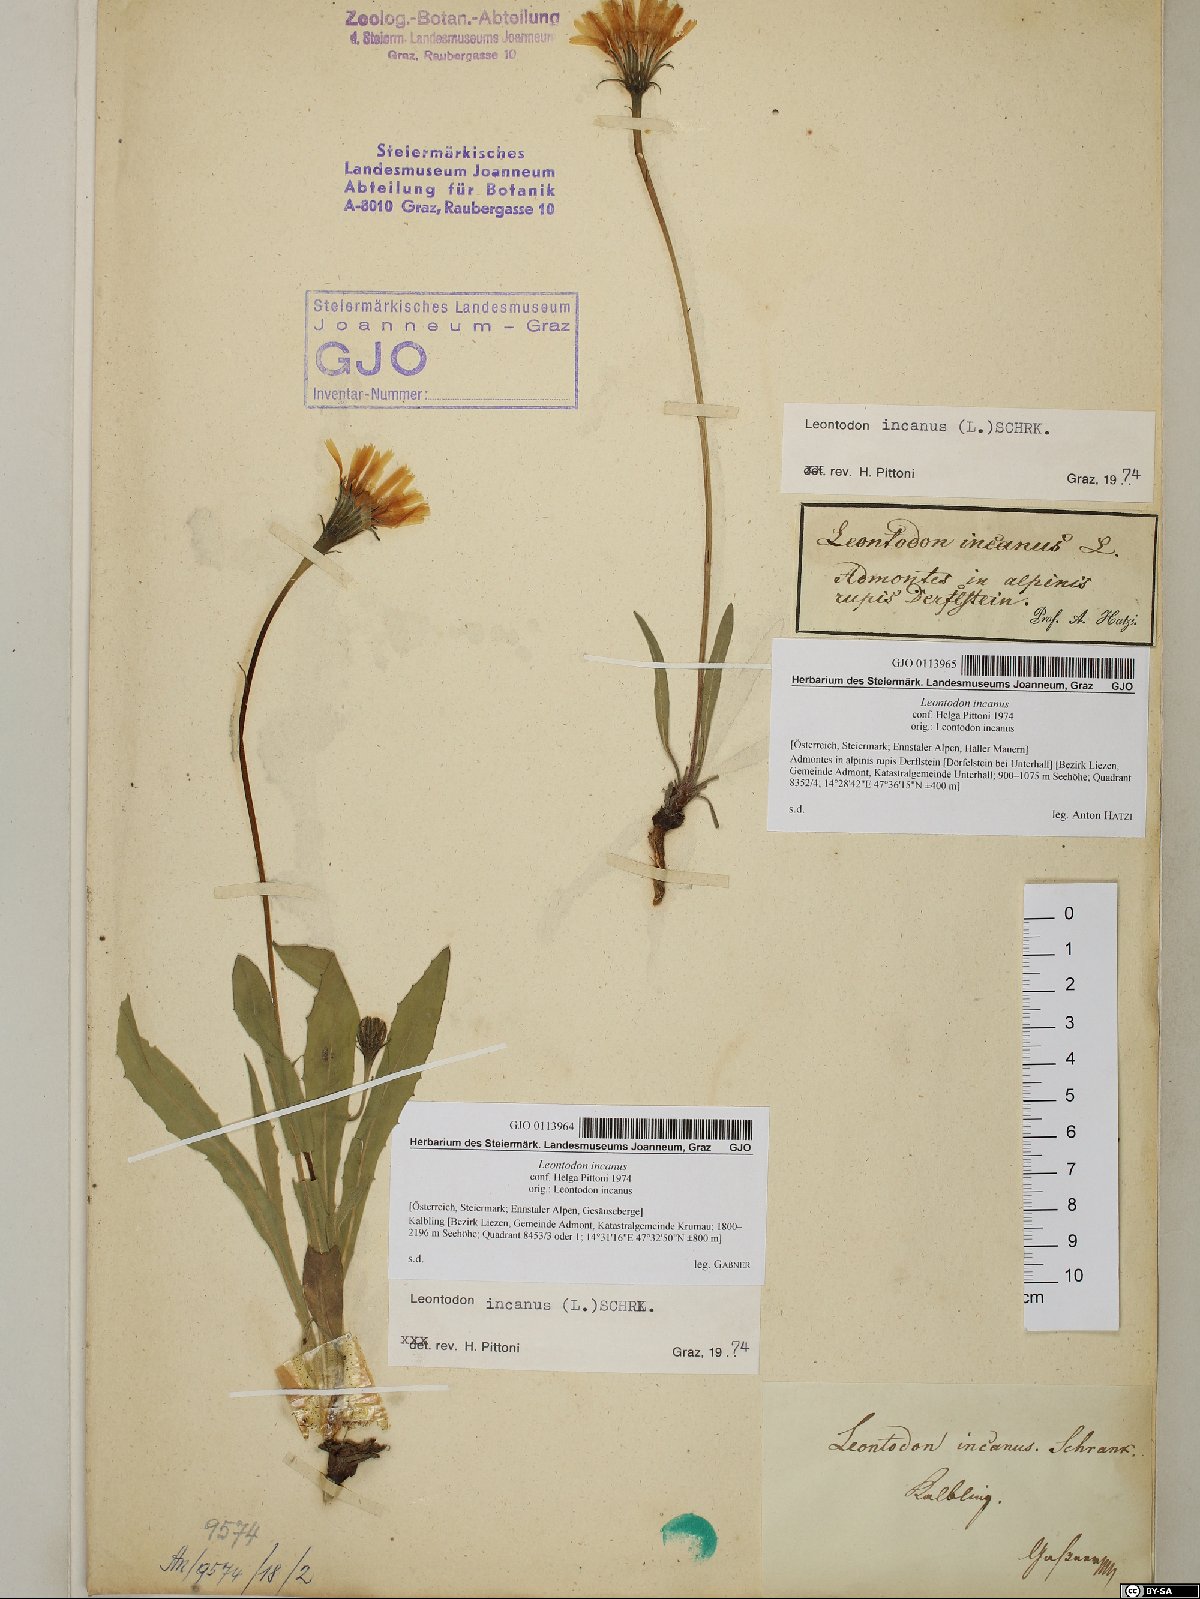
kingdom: Plantae
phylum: Tracheophyta
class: Magnoliopsida
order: Asterales
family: Asteraceae
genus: Leontodon
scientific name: Leontodon incanus
